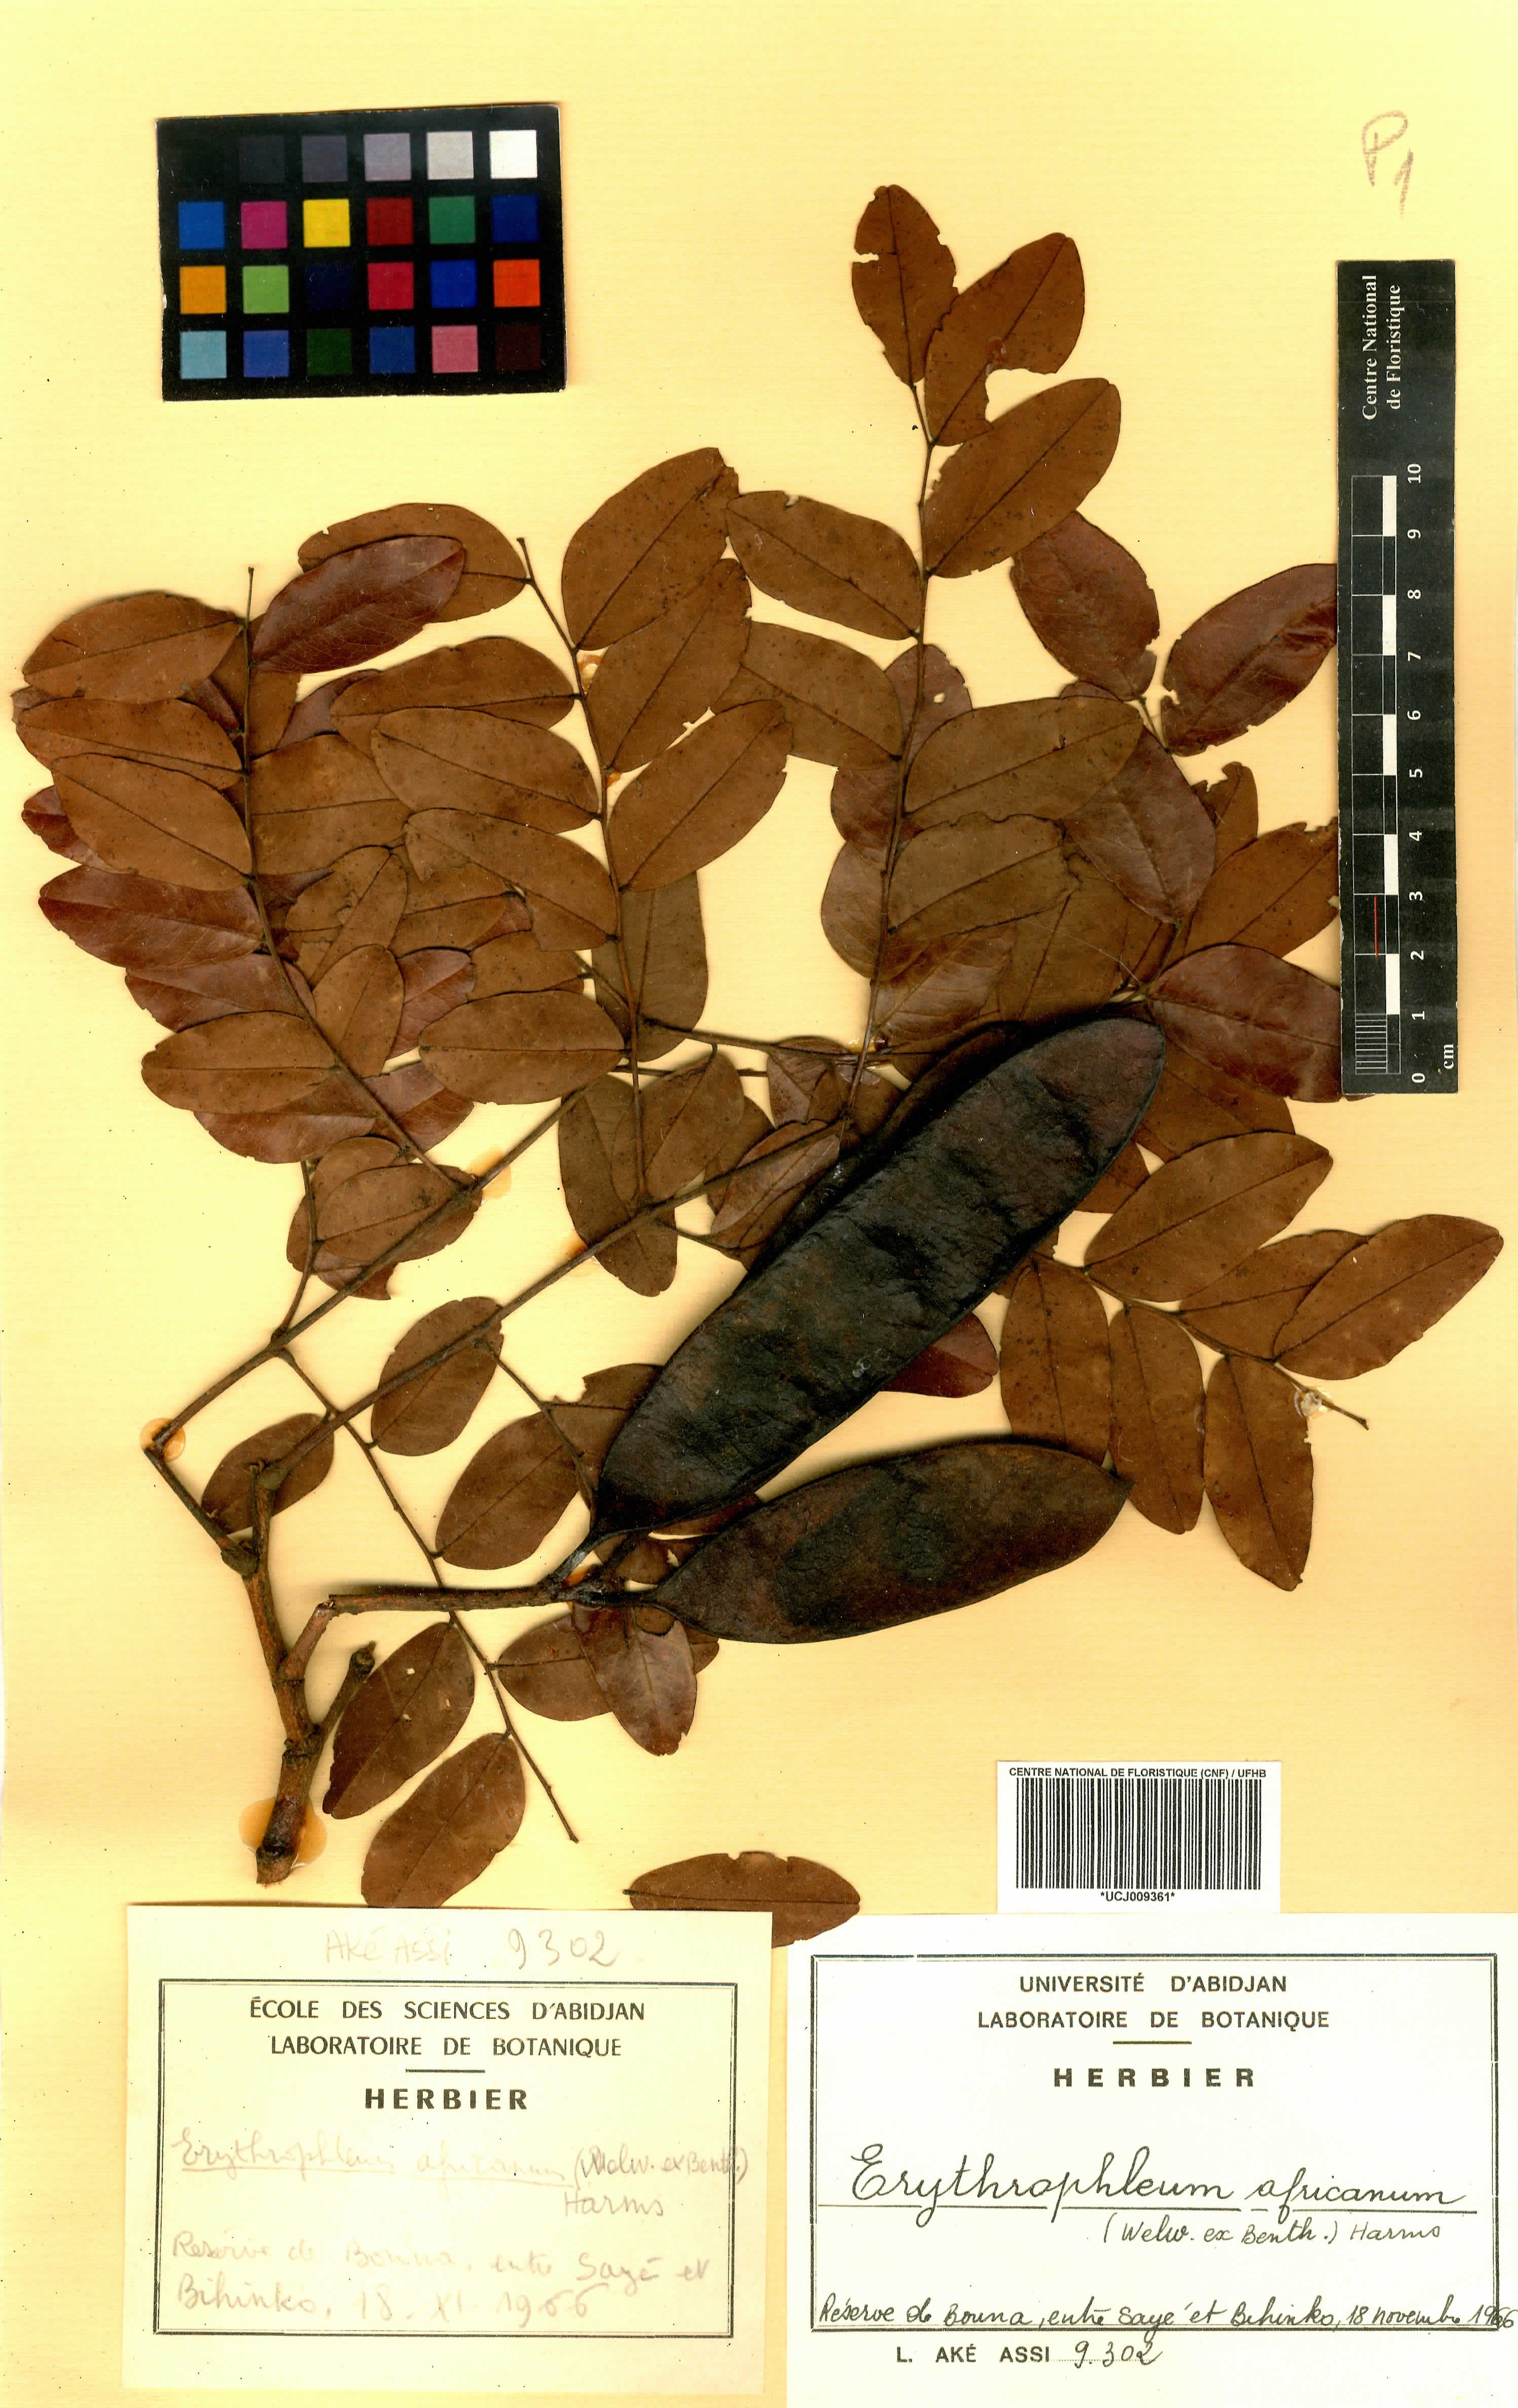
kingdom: Plantae
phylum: Tracheophyta
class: Magnoliopsida
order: Fabales
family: Fabaceae
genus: Erythrophleum
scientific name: Erythrophleum africanum
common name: African blackwood
